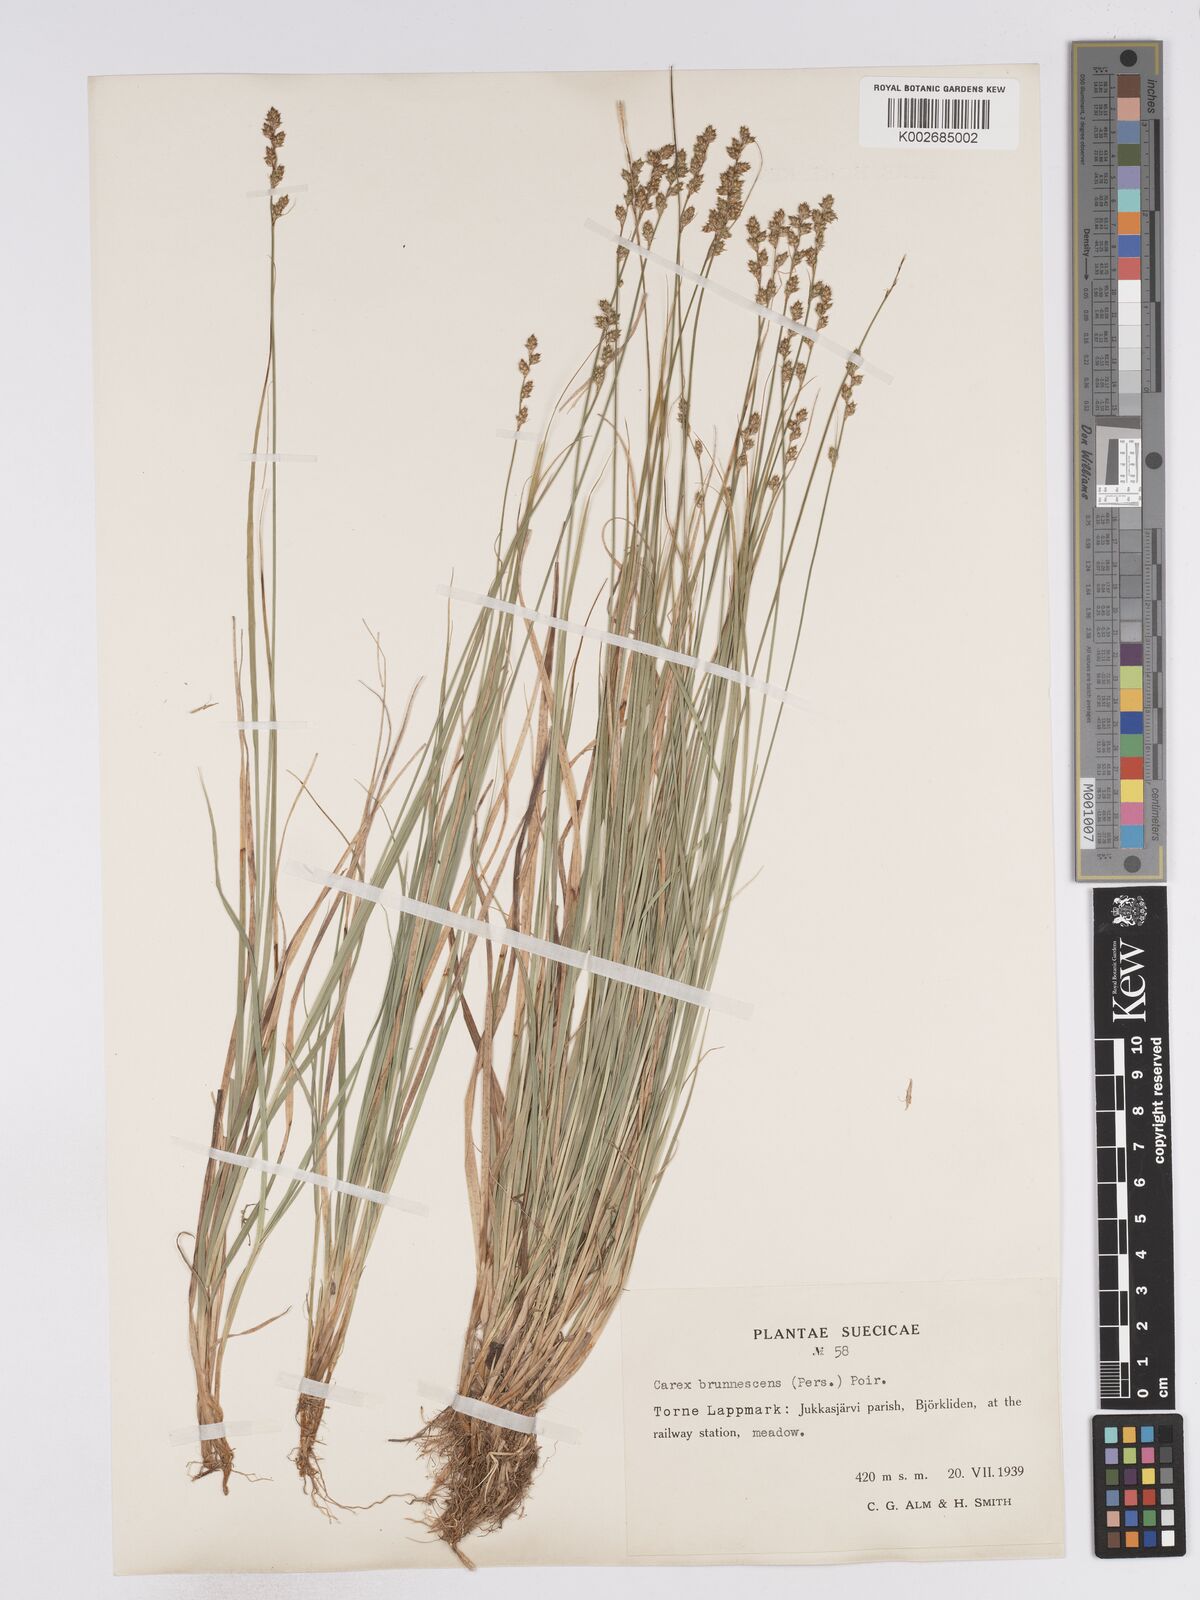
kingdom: Plantae
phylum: Tracheophyta
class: Liliopsida
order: Poales
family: Cyperaceae
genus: Carex
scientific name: Carex brunnescens
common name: Brown sedge
